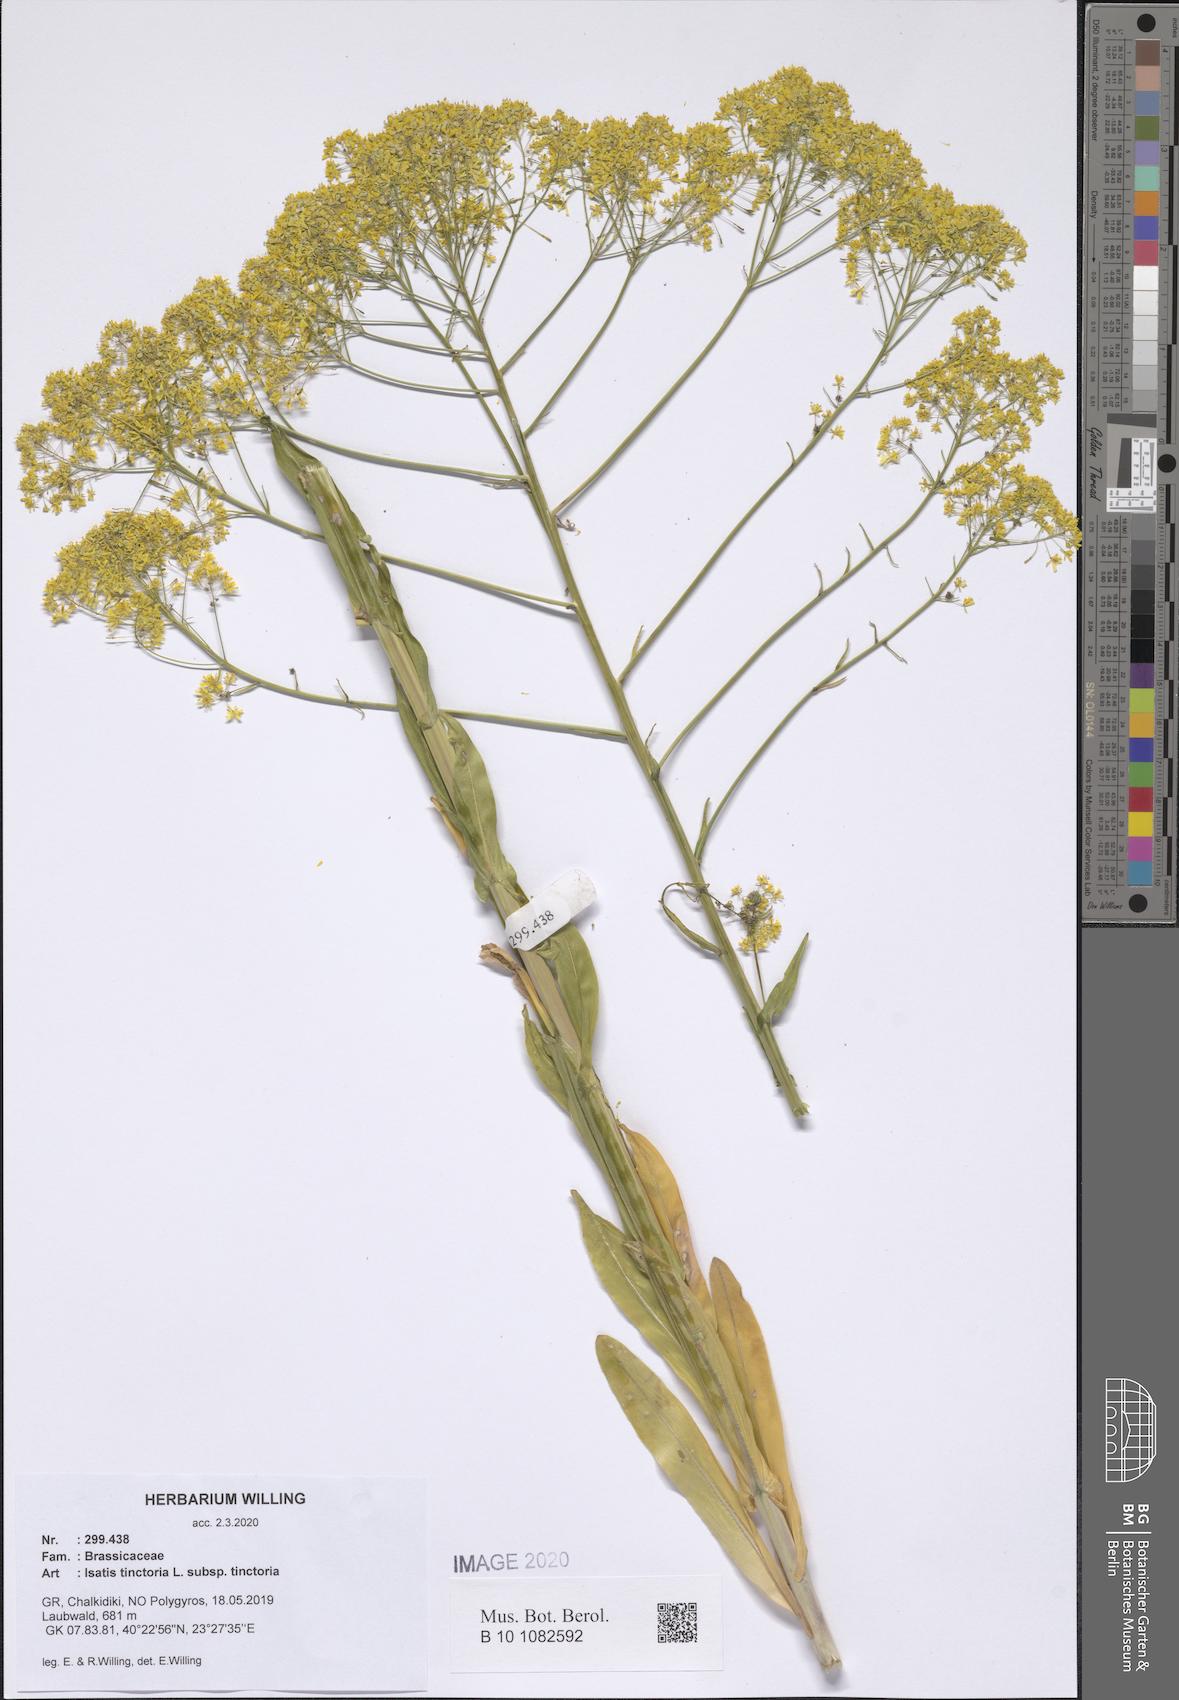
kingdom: Plantae
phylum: Tracheophyta
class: Magnoliopsida
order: Brassicales
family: Brassicaceae
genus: Isatis
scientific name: Isatis tinctoria
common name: Woad
